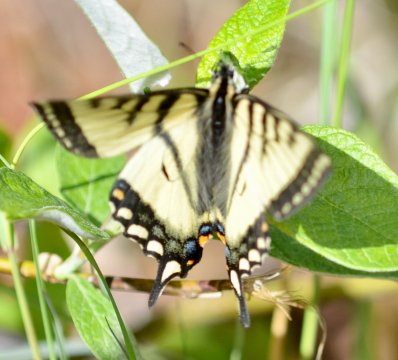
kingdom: Animalia
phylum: Arthropoda
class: Insecta
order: Lepidoptera
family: Papilionidae
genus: Pterourus
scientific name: Pterourus canadensis
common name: Canadian Tiger Swallowtail
